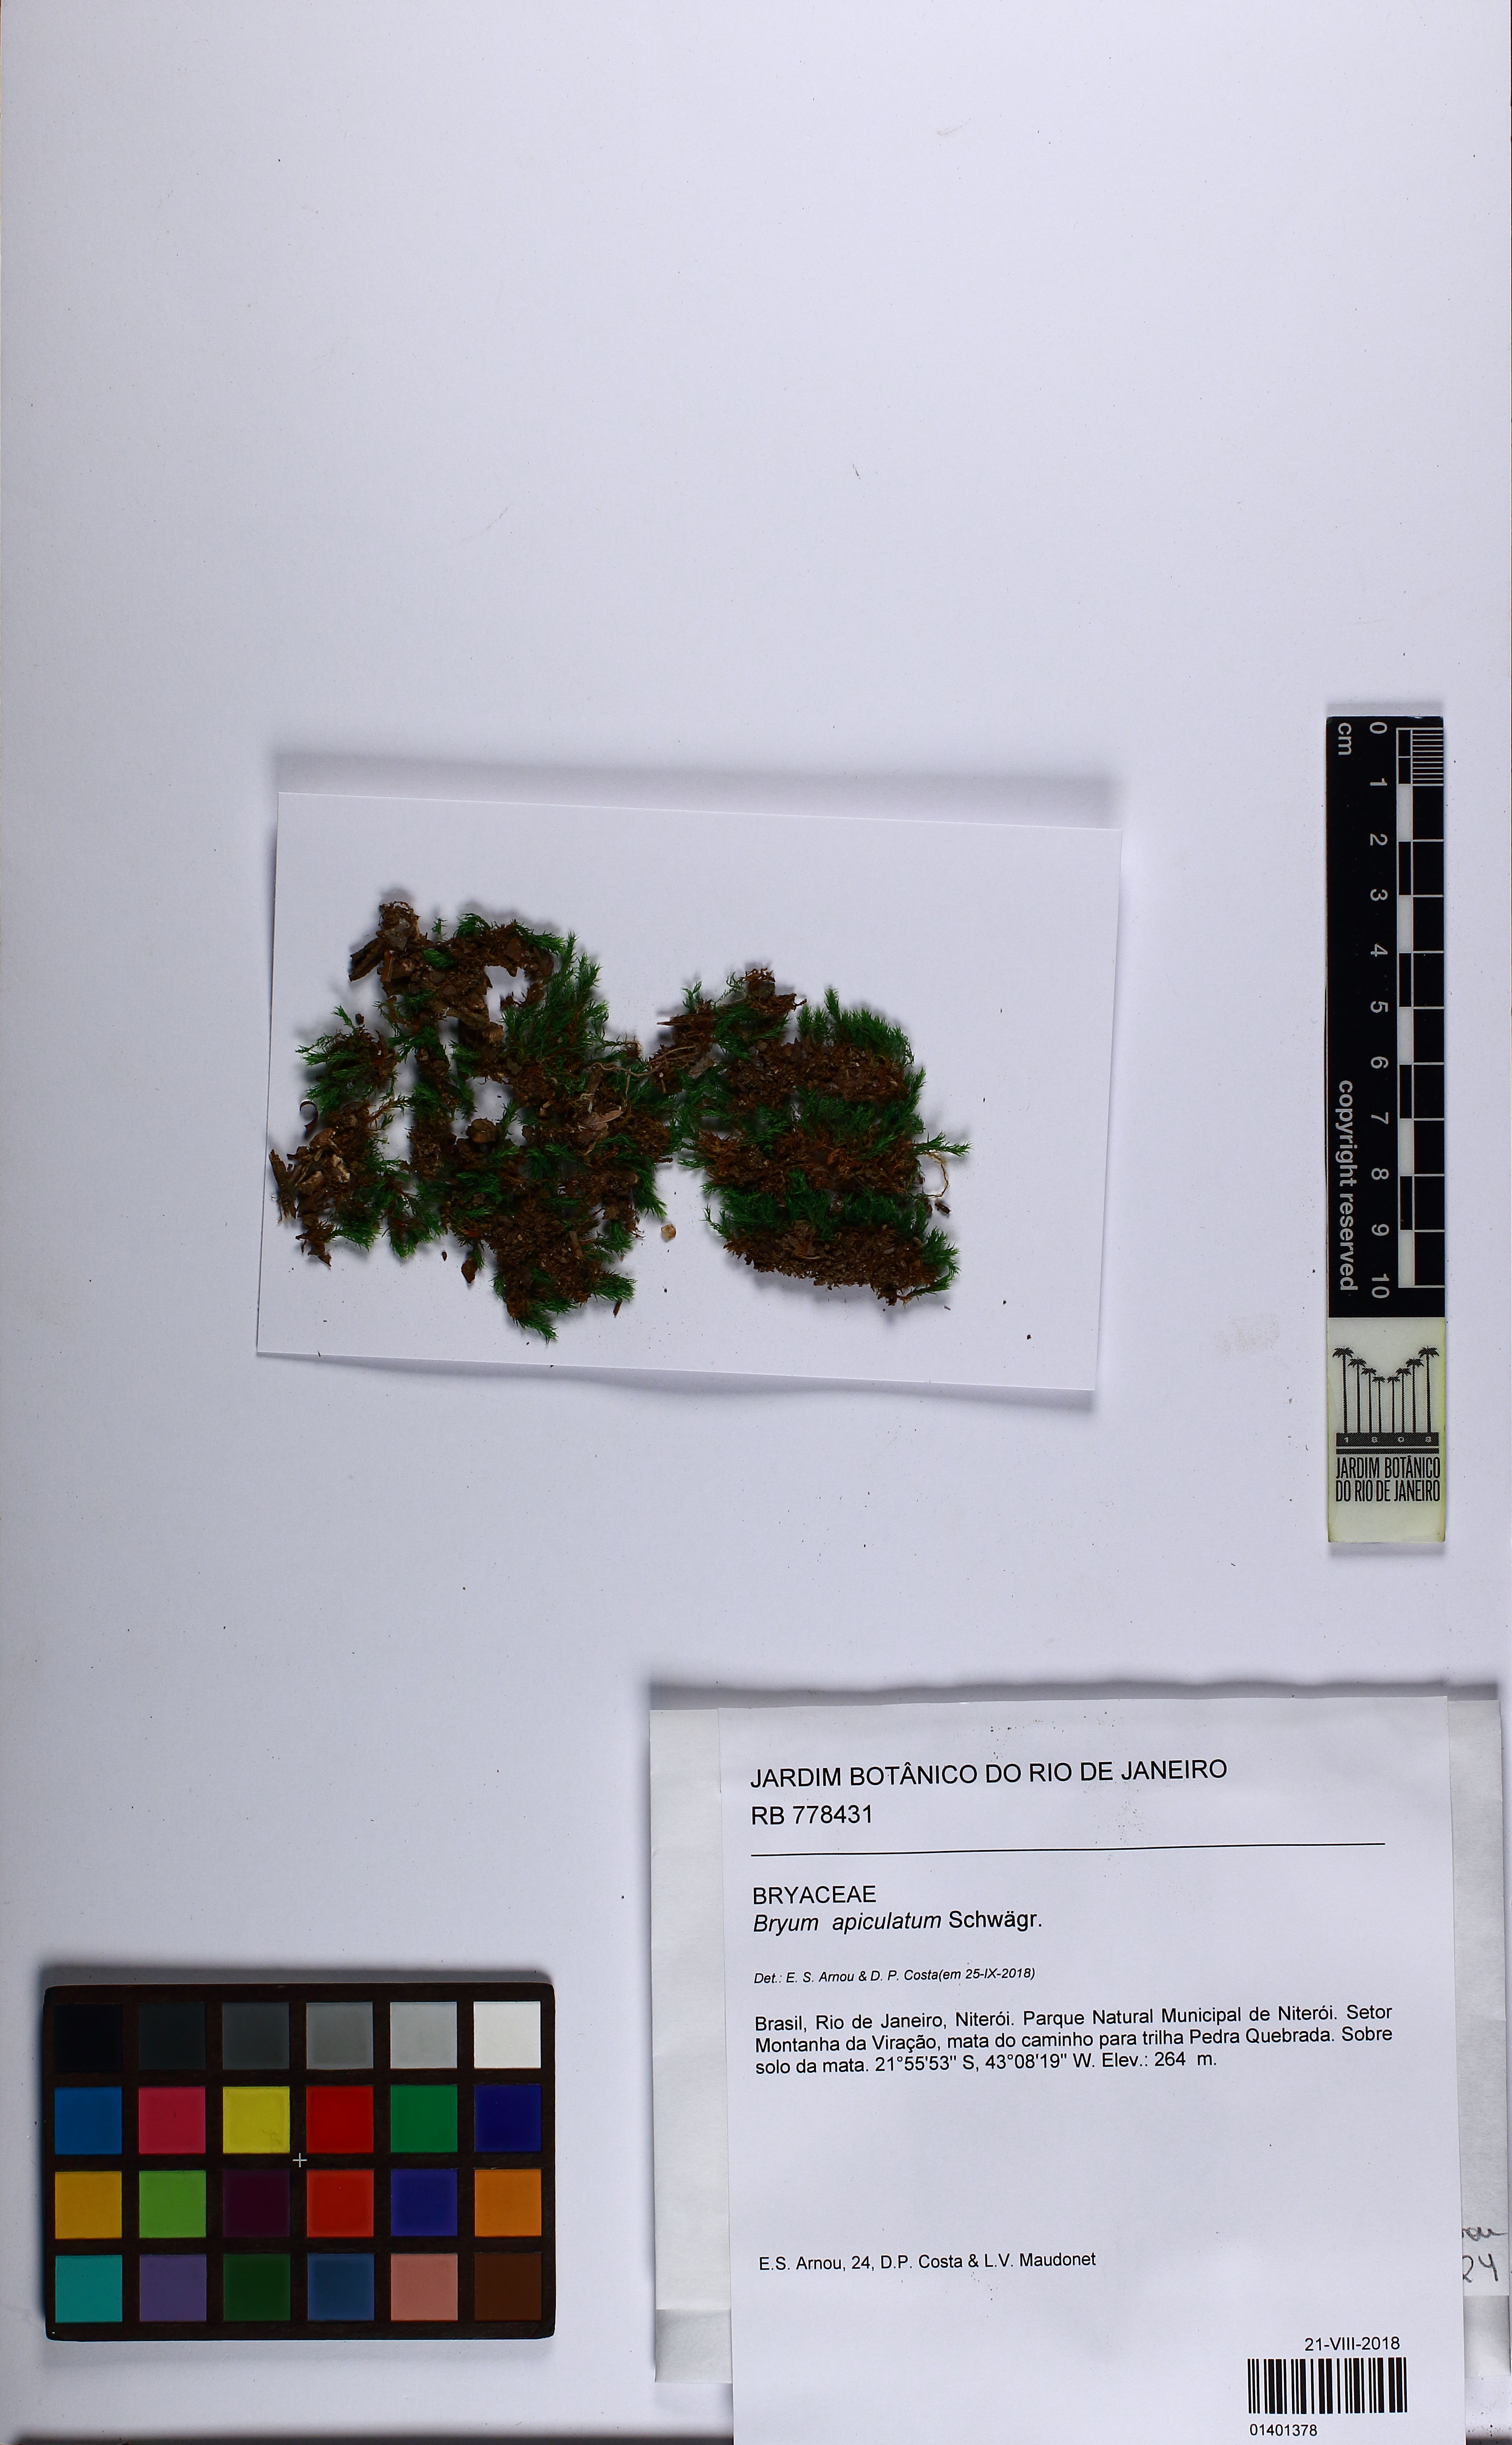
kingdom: Plantae
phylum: Bryophyta
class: Bryopsida
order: Bryales
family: Bryaceae
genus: Gemmabryum
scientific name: Gemmabryum apiculatum
